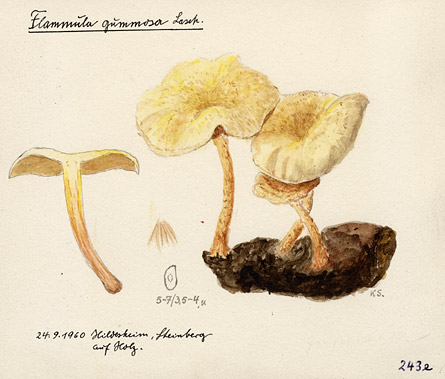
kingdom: Fungi
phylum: Basidiomycota
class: Agaricomycetes
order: Agaricales
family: Strophariaceae
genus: Pholiota
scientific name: Pholiota gummosa
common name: Sticky scalycap
